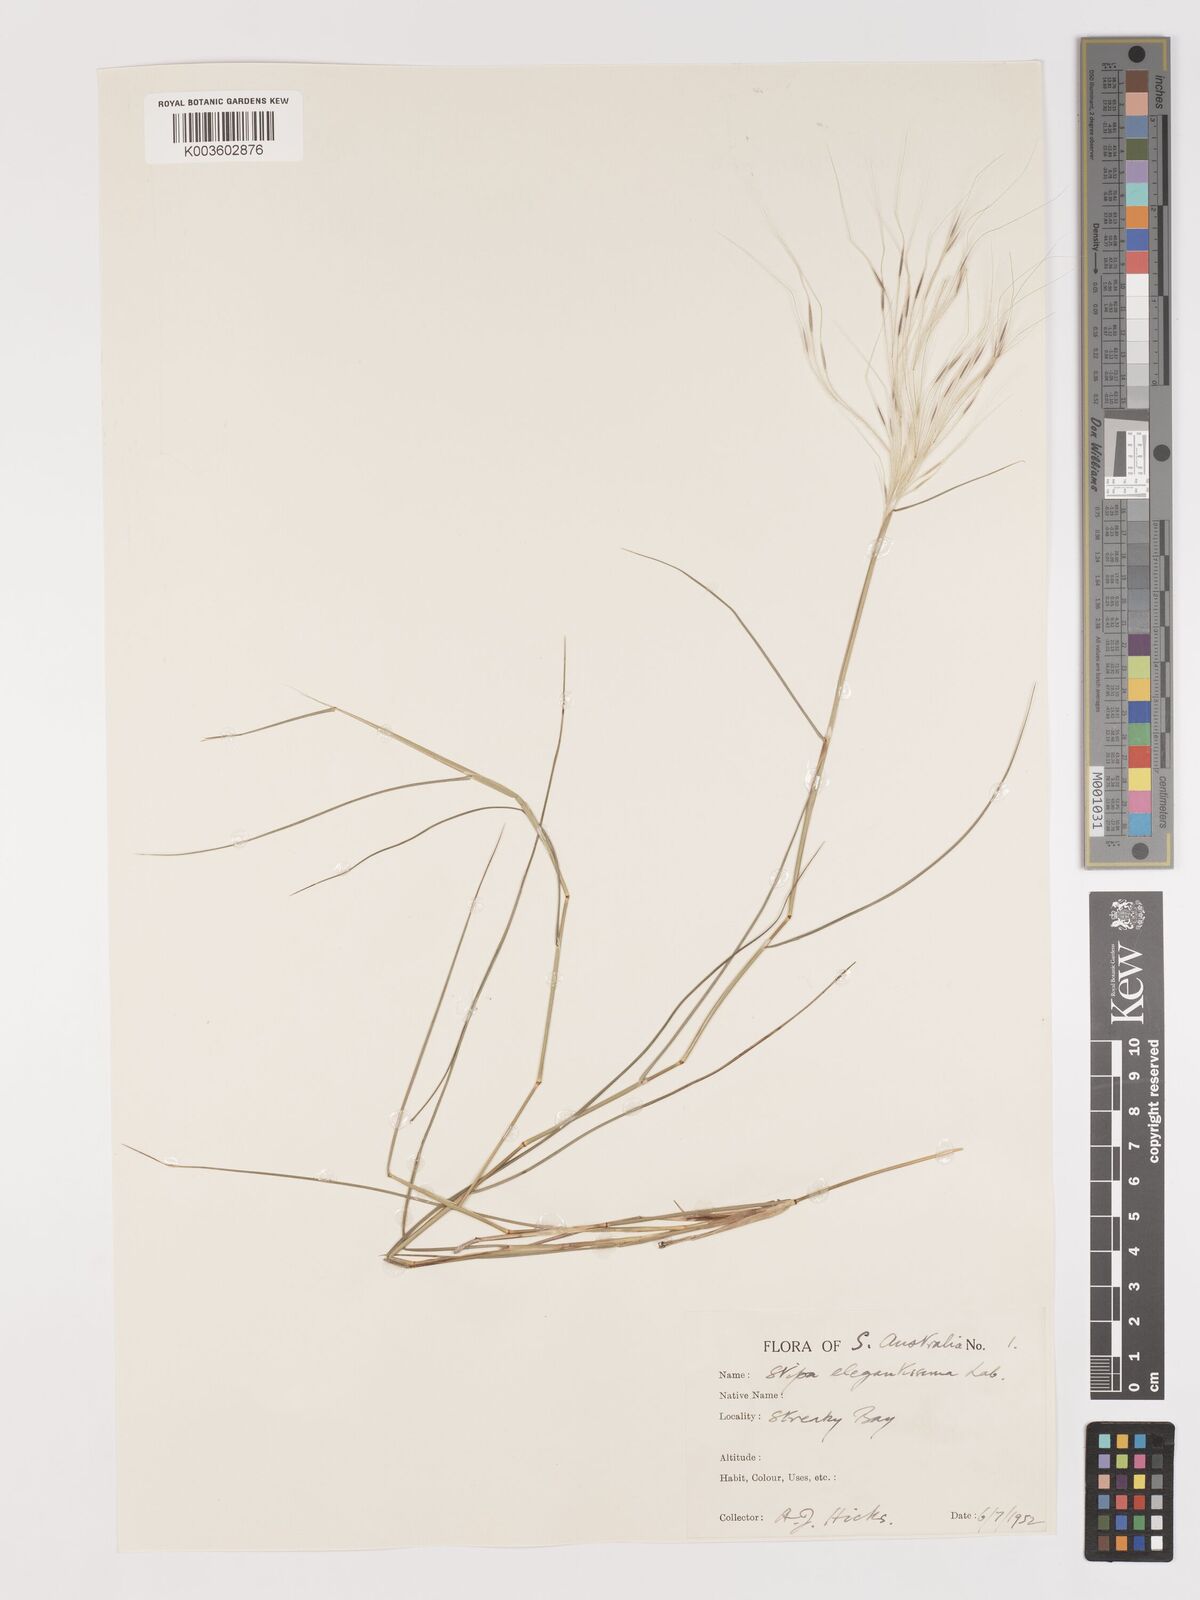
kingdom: Plantae
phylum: Tracheophyta
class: Liliopsida
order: Poales
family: Poaceae
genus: Austrostipa
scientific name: Austrostipa elegantissima
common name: Feather spear grass
